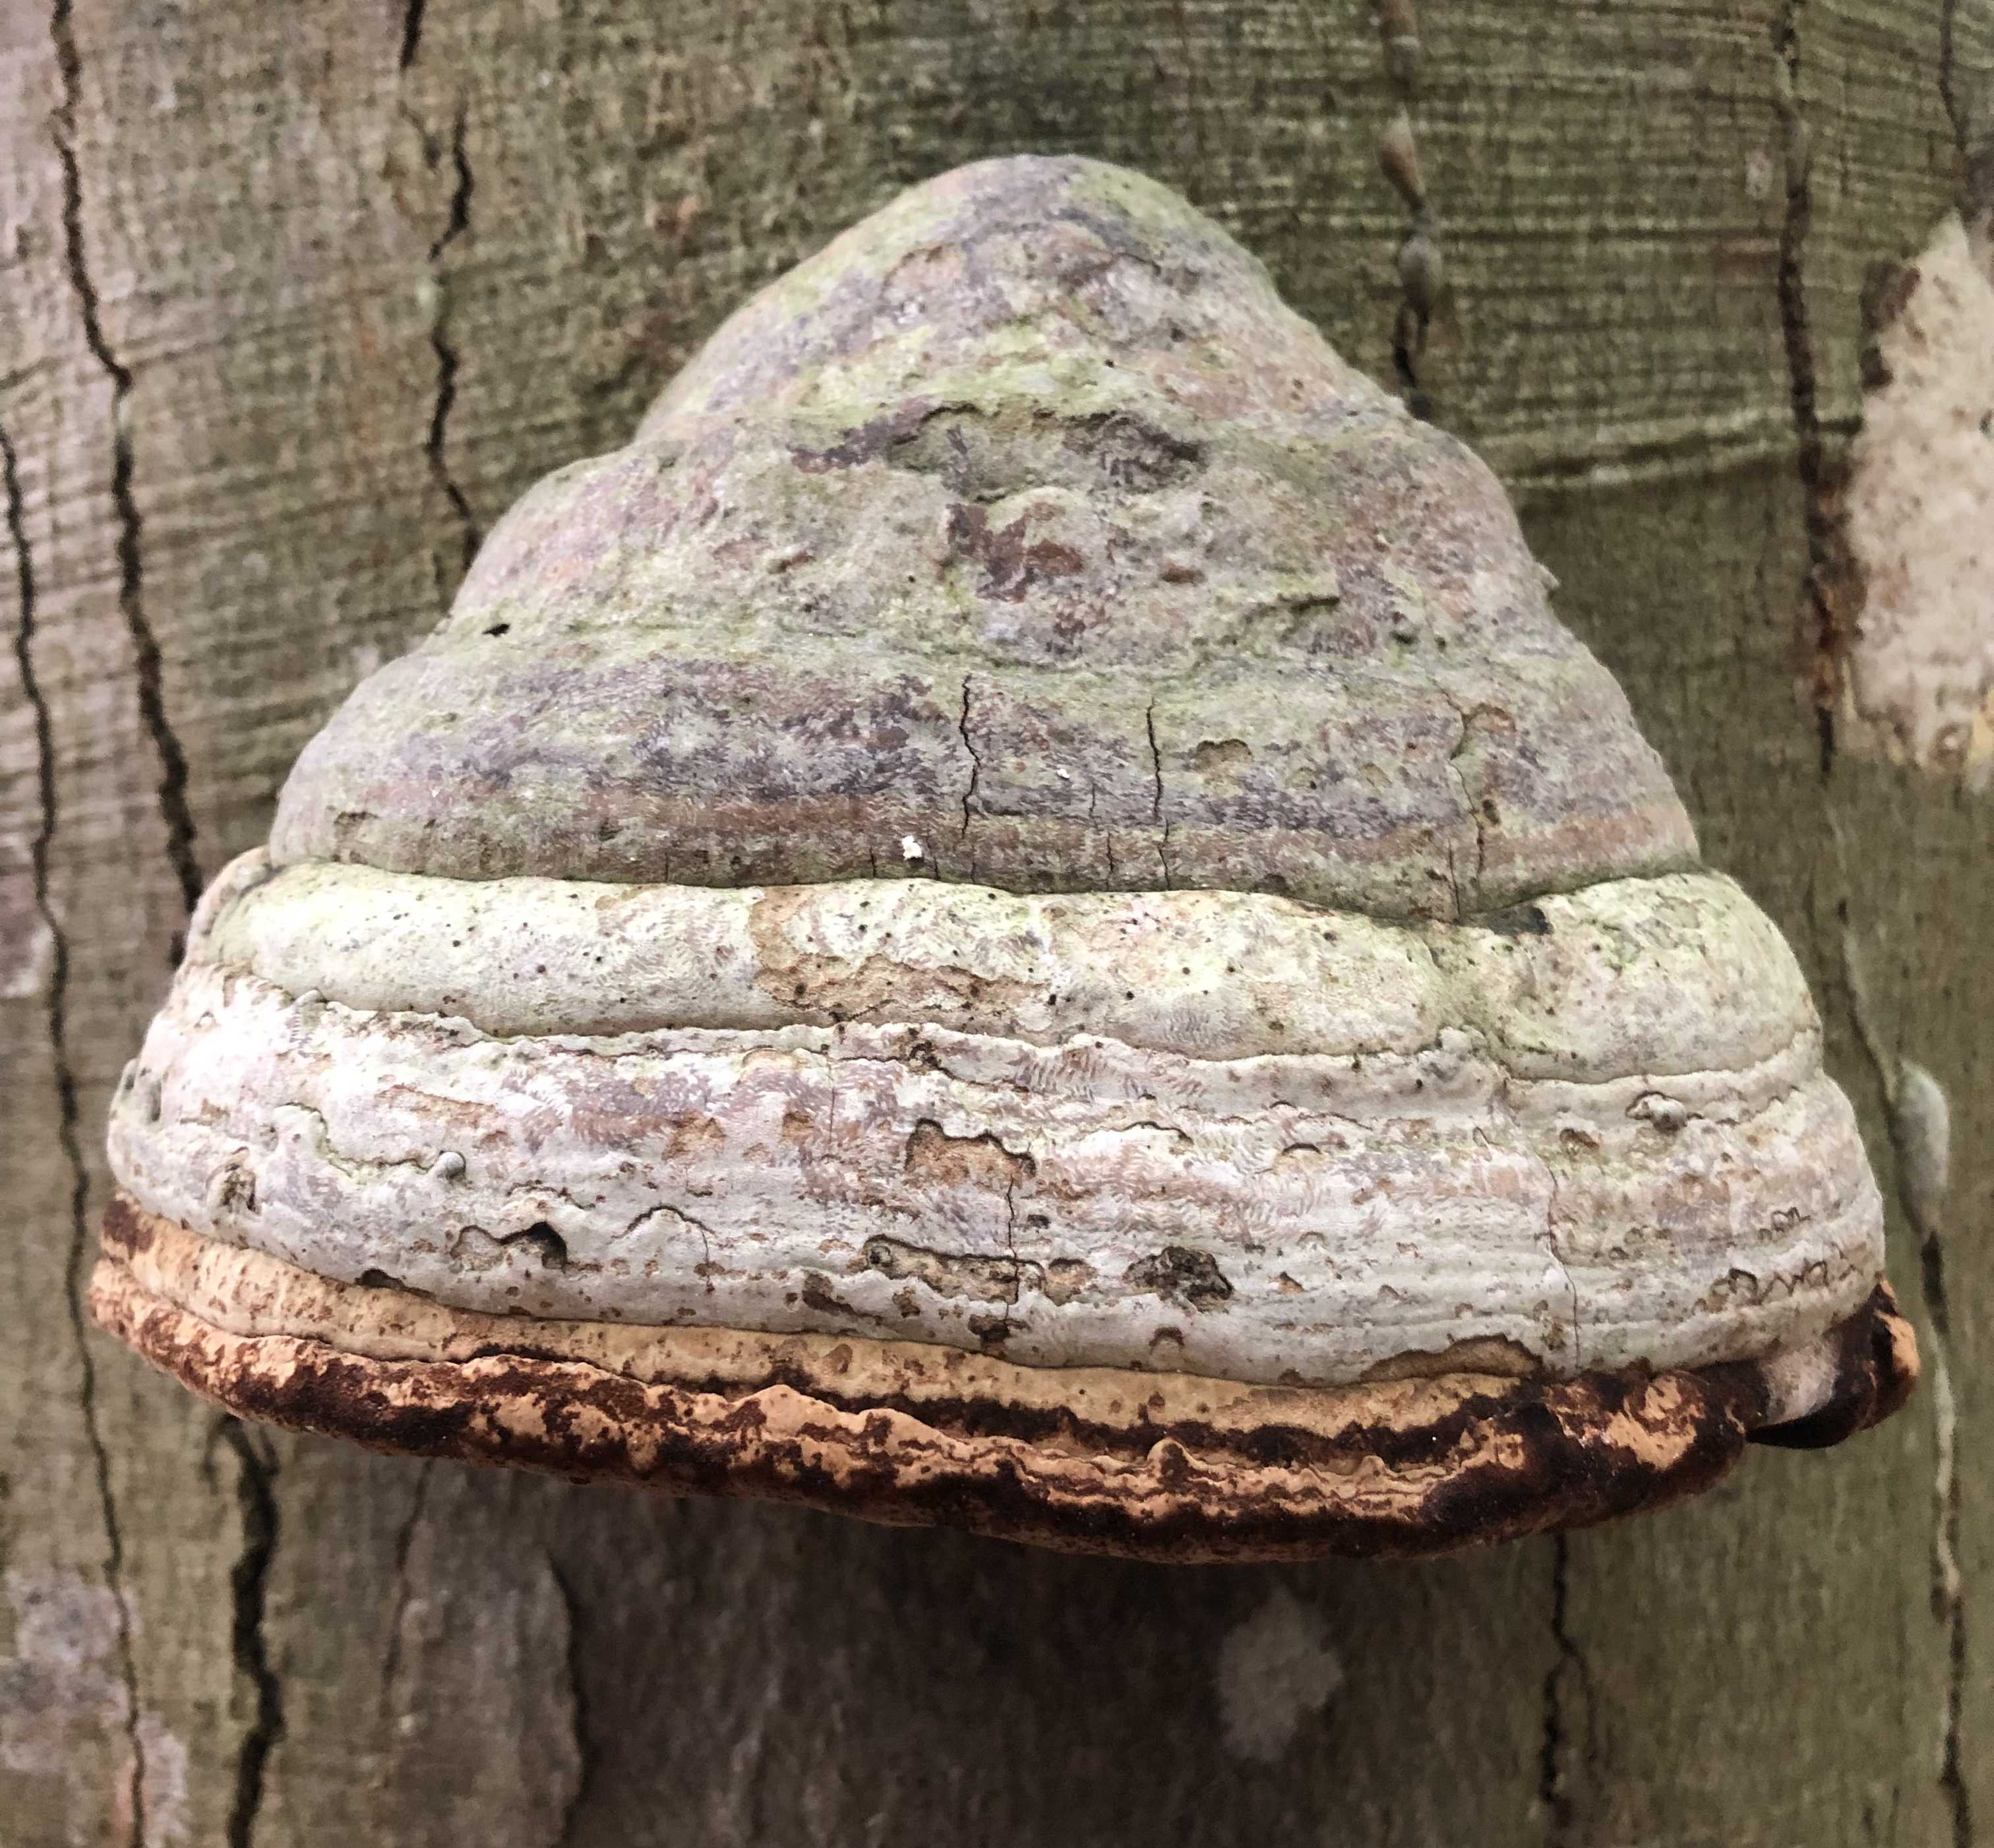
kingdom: Fungi
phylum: Basidiomycota
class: Agaricomycetes
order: Polyporales
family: Polyporaceae
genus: Fomes
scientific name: Fomes fomentarius
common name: tøndersvamp
